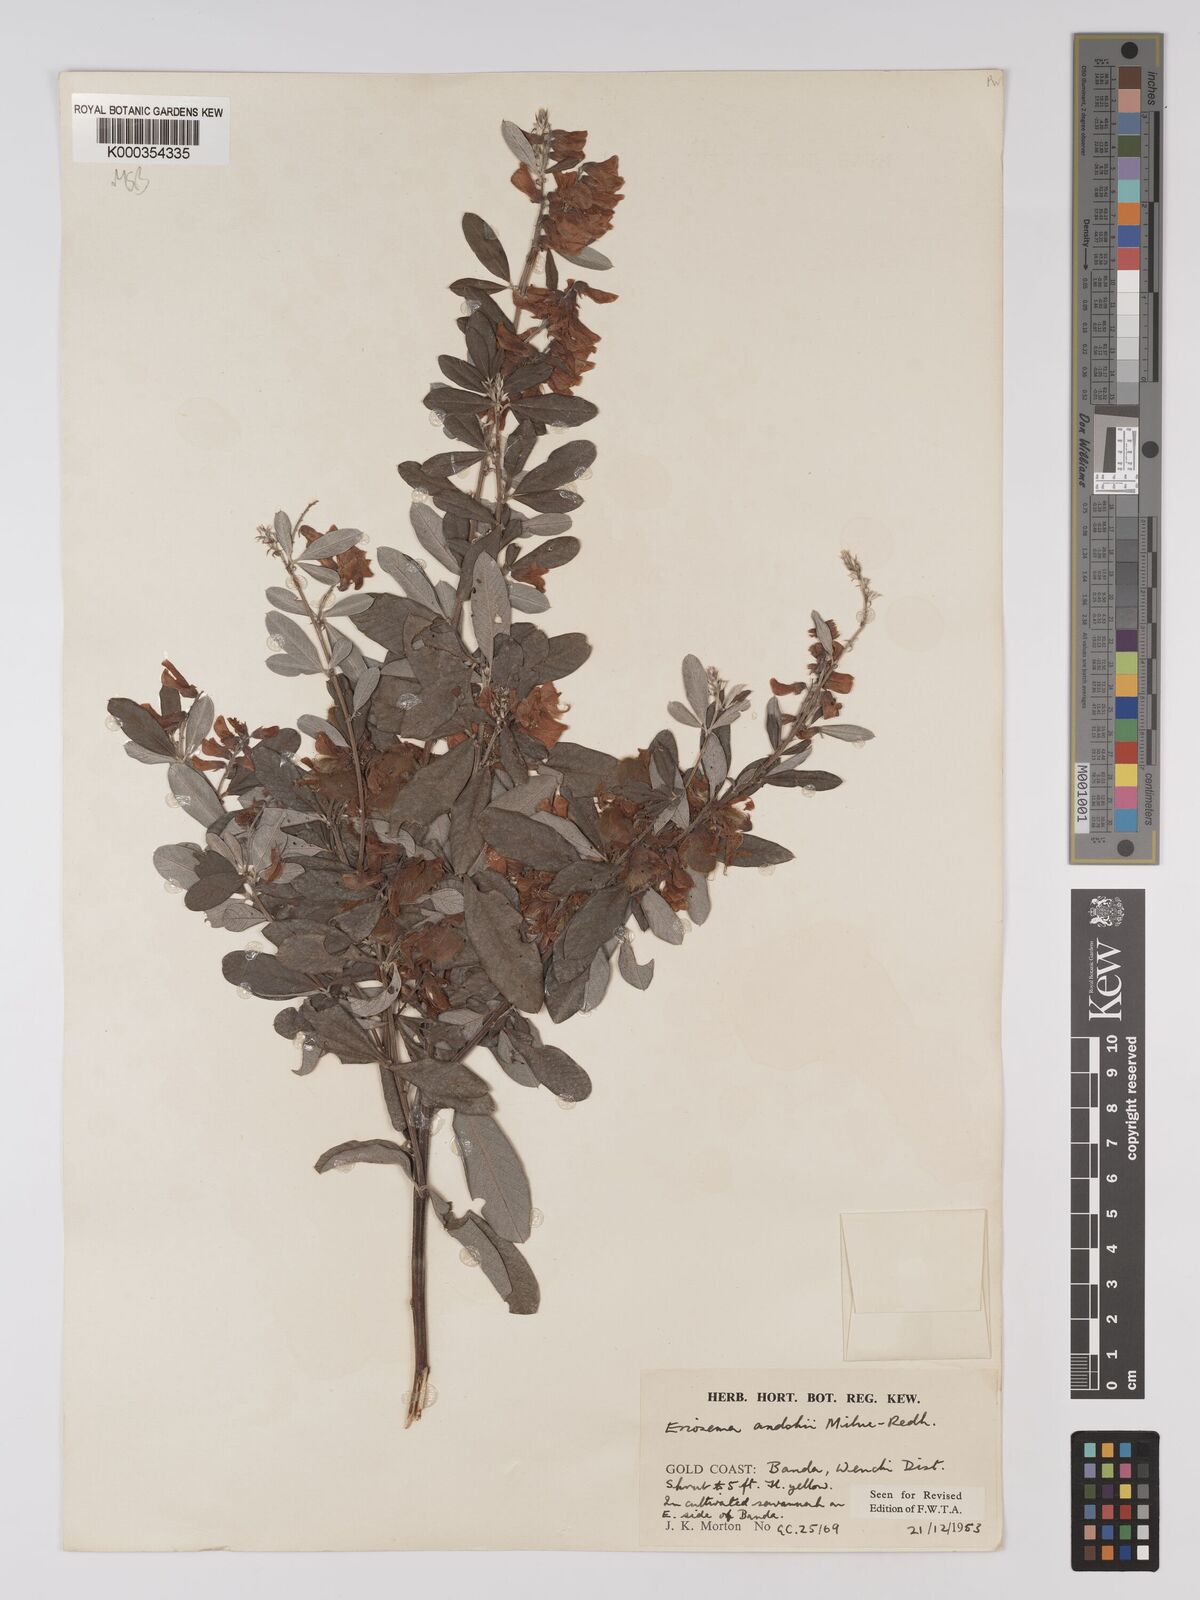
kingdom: Plantae
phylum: Tracheophyta
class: Magnoliopsida
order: Fabales
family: Fabaceae
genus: Eriosema
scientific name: Eriosema andohii
